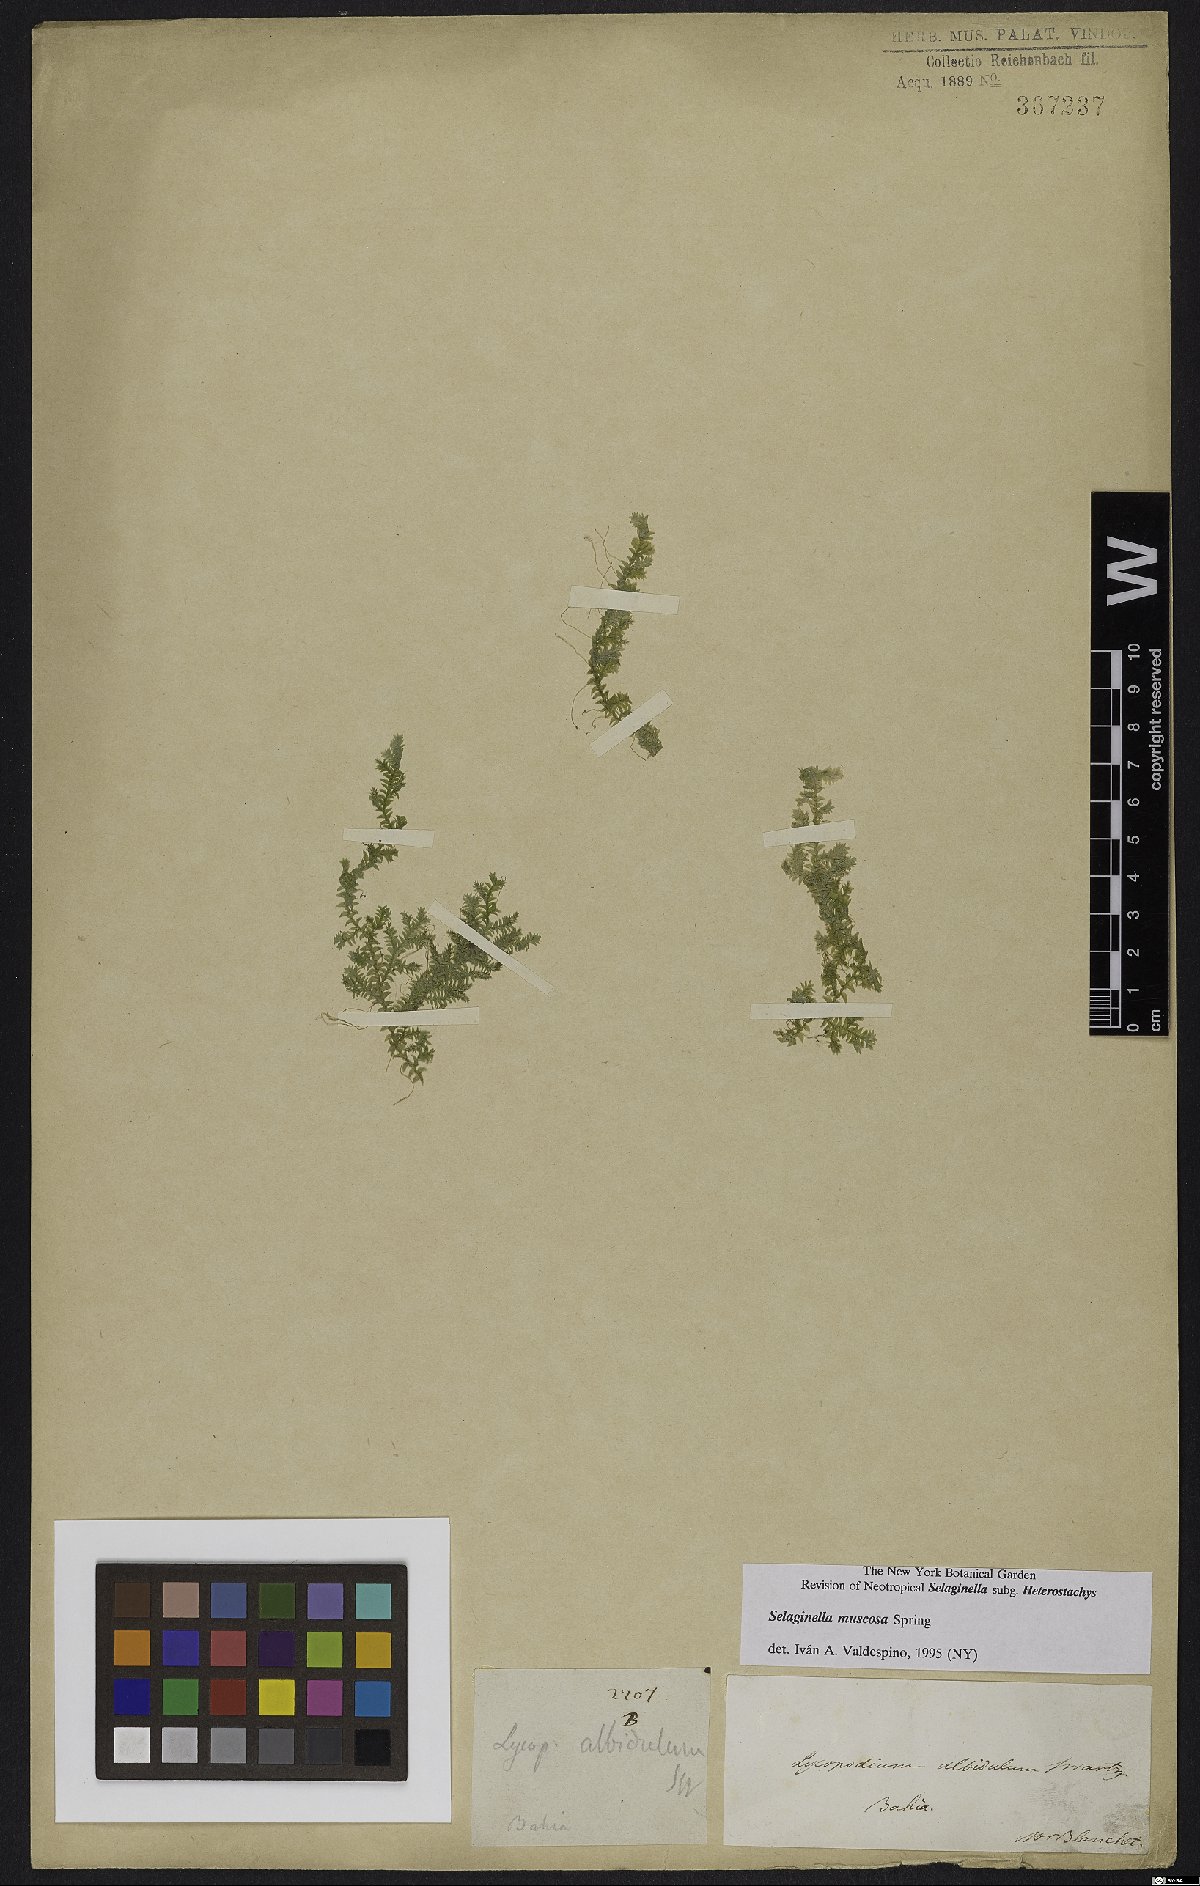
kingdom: Plantae
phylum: Tracheophyta
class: Lycopodiopsida
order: Selaginellales
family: Selaginellaceae
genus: Selaginella
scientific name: Selaginella muscosa
